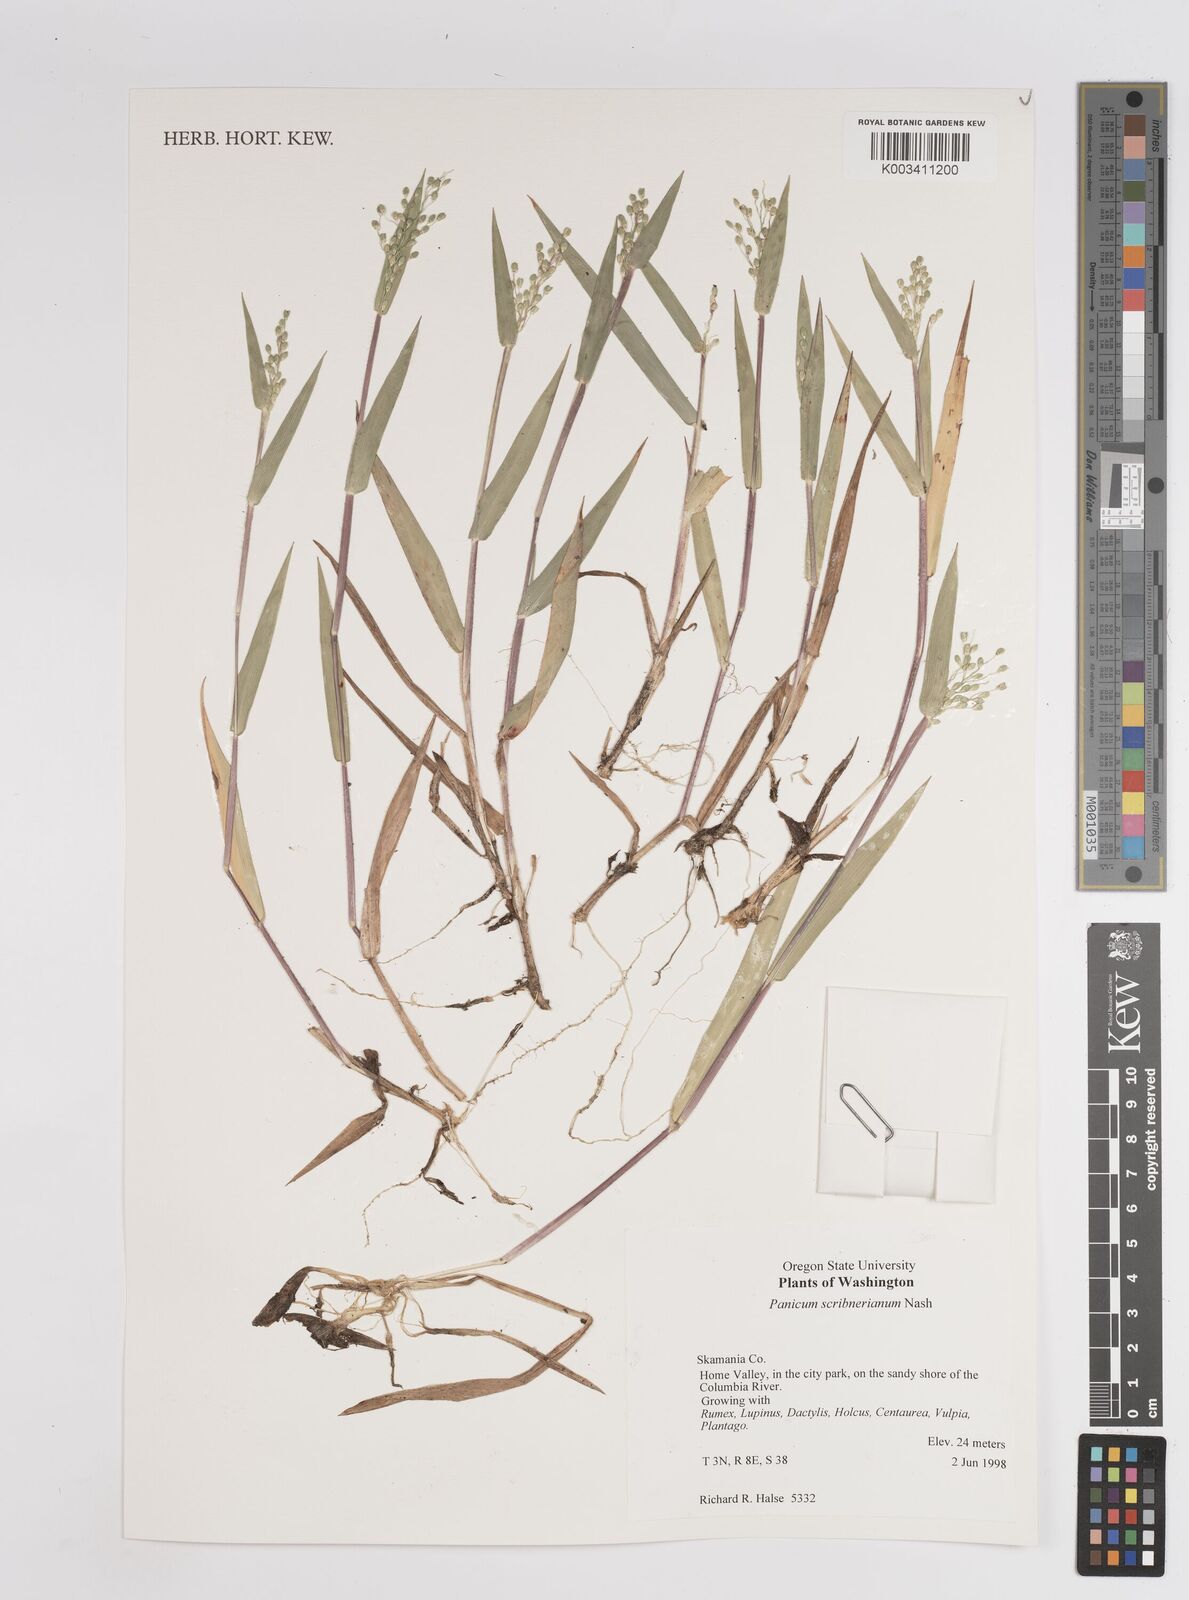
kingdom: Plantae
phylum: Tracheophyta
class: Liliopsida
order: Poales
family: Poaceae
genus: Dichanthelium
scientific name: Dichanthelium oligosanthes
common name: Few-anther obscuregrass
